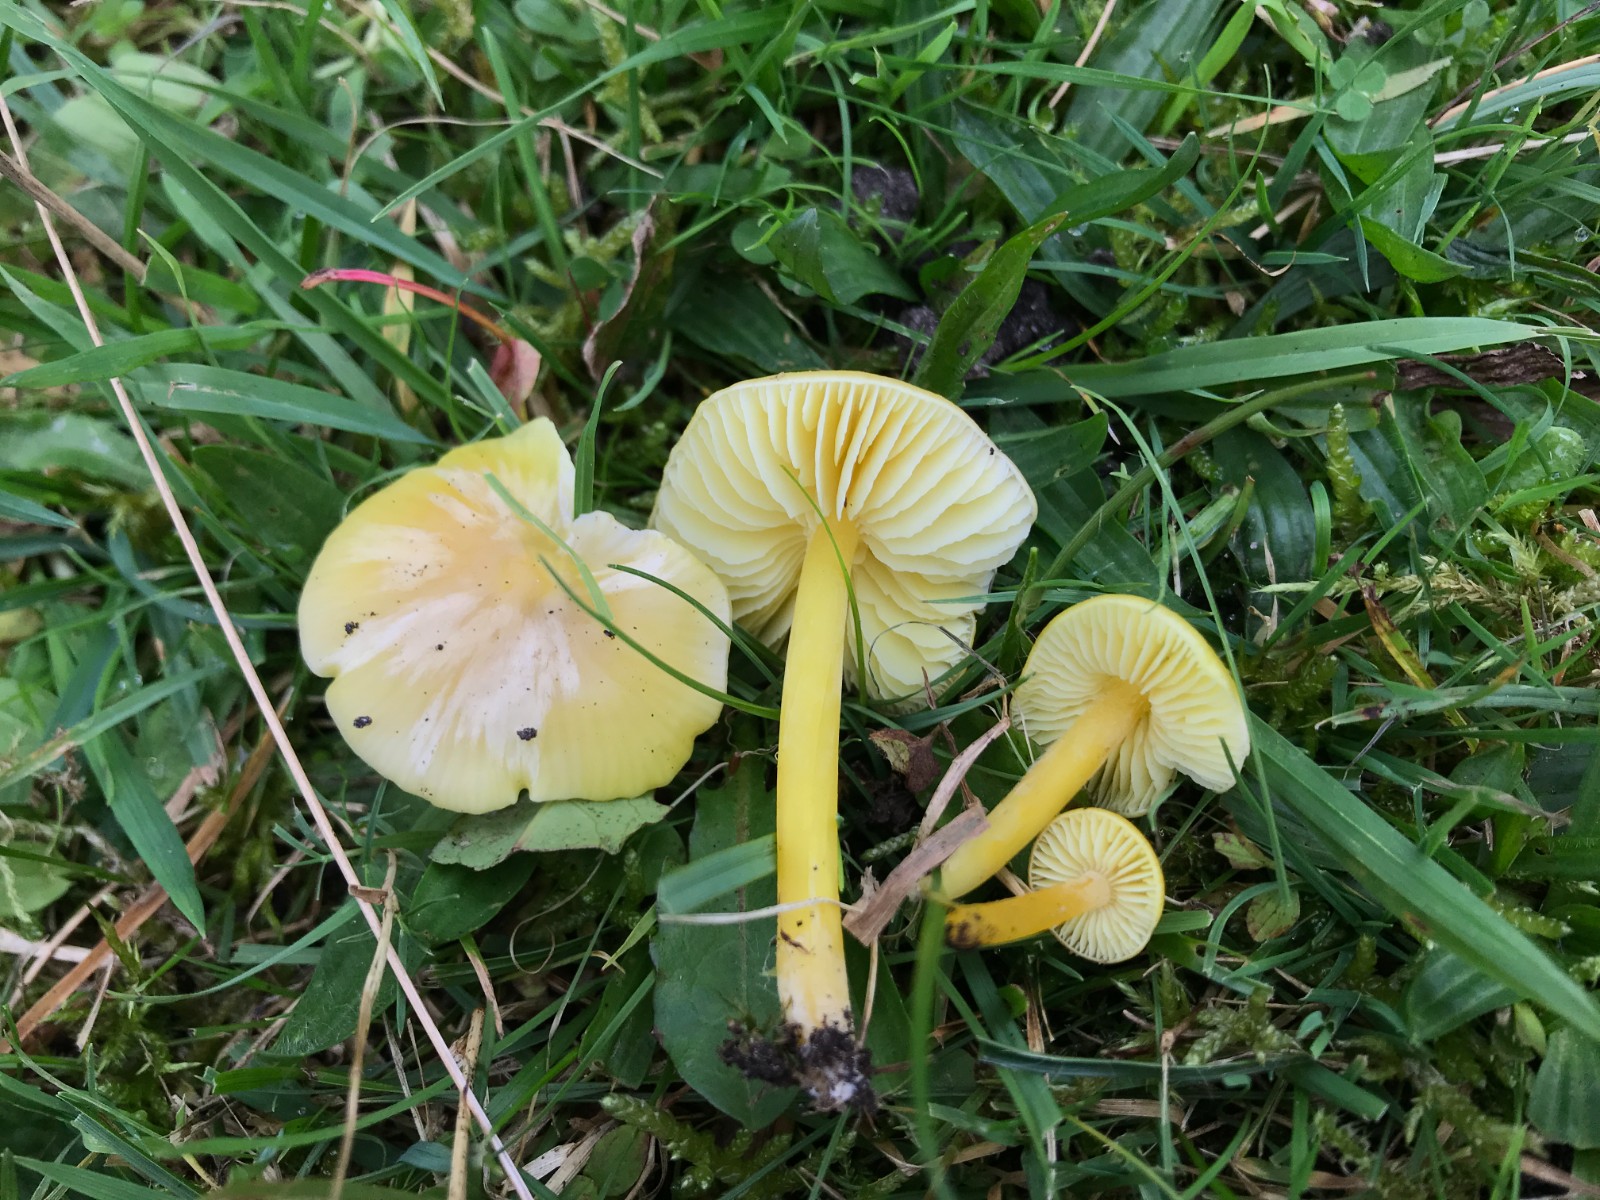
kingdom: Fungi
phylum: Basidiomycota
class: Agaricomycetes
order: Agaricales
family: Hygrophoraceae
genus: Hygrocybe
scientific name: Hygrocybe chlorophana
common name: gul vokshat
